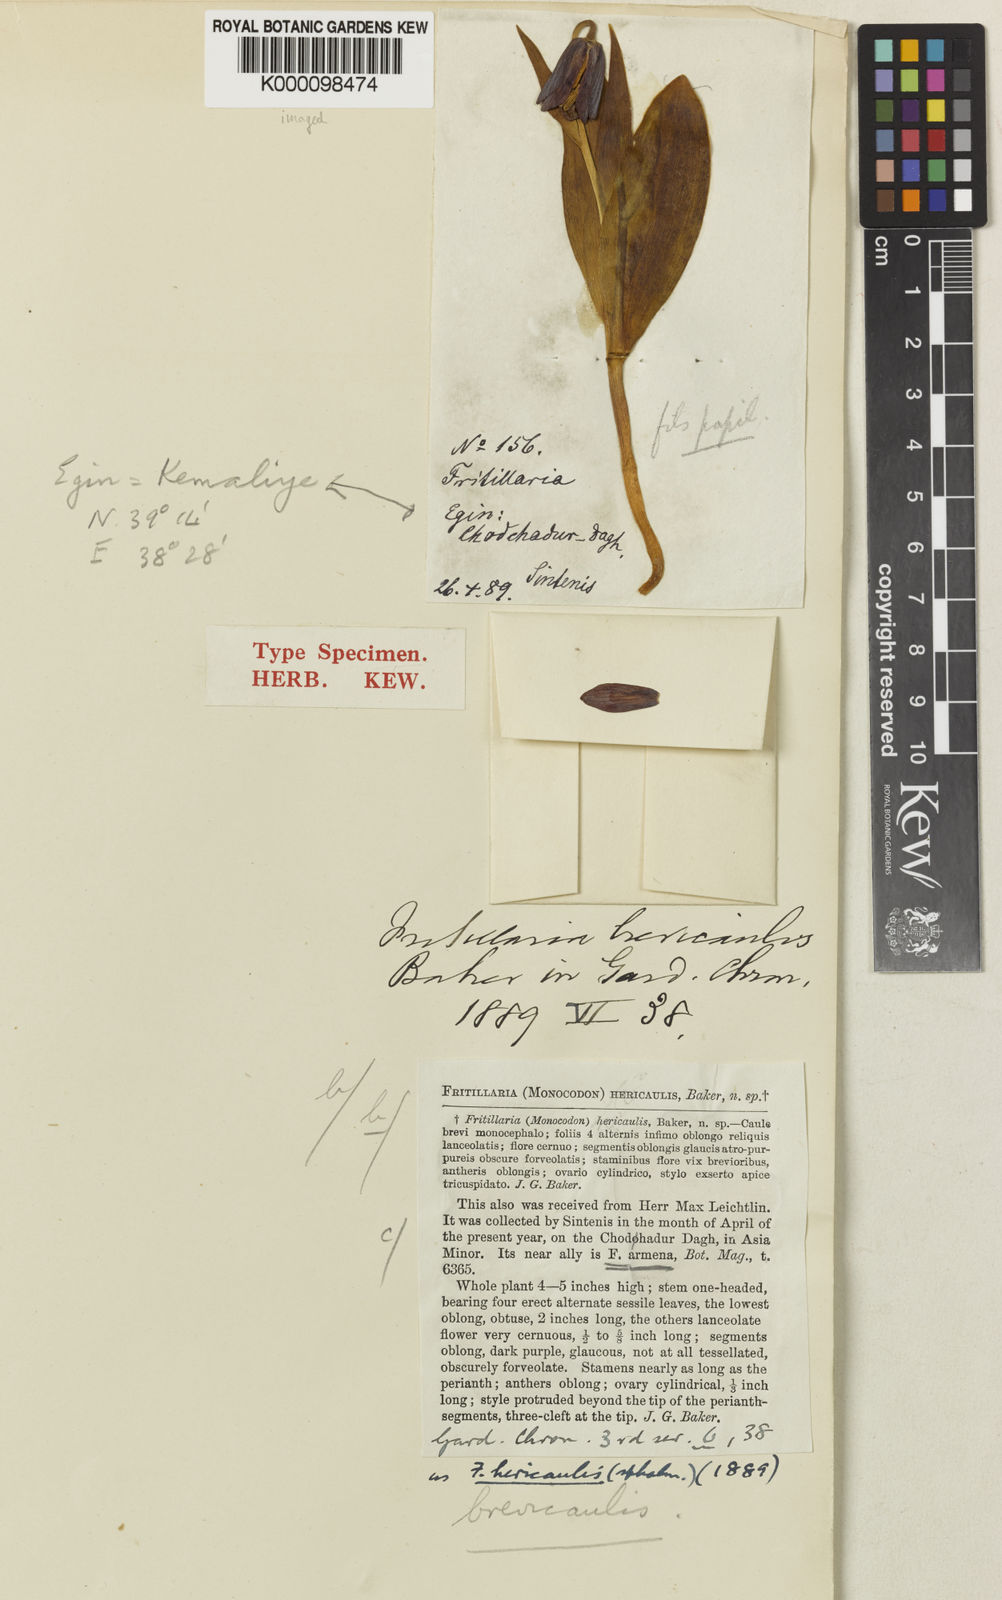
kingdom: Plantae
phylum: Tracheophyta
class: Liliopsida
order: Liliales
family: Liliaceae
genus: Fritillaria
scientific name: Fritillaria armena
